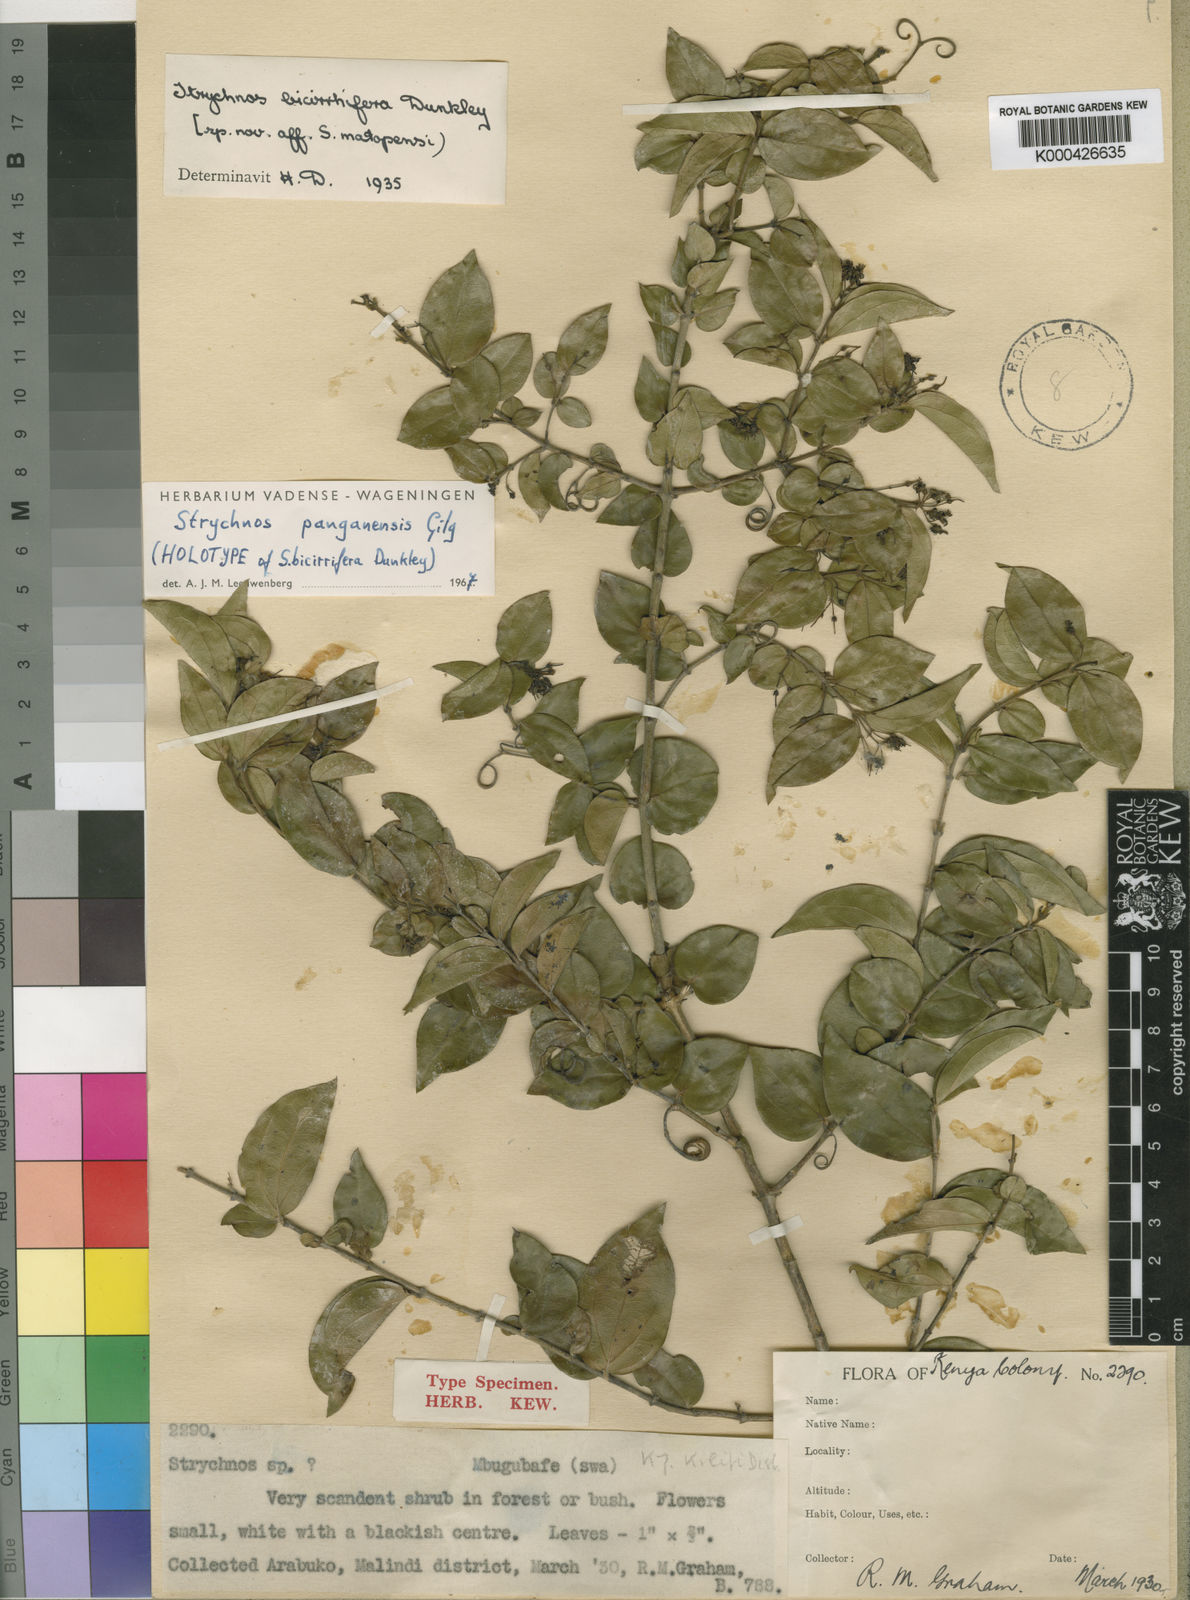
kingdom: Plantae
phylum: Tracheophyta
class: Magnoliopsida
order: Gentianales
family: Loganiaceae
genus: Strychnos
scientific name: Strychnos panganensis
